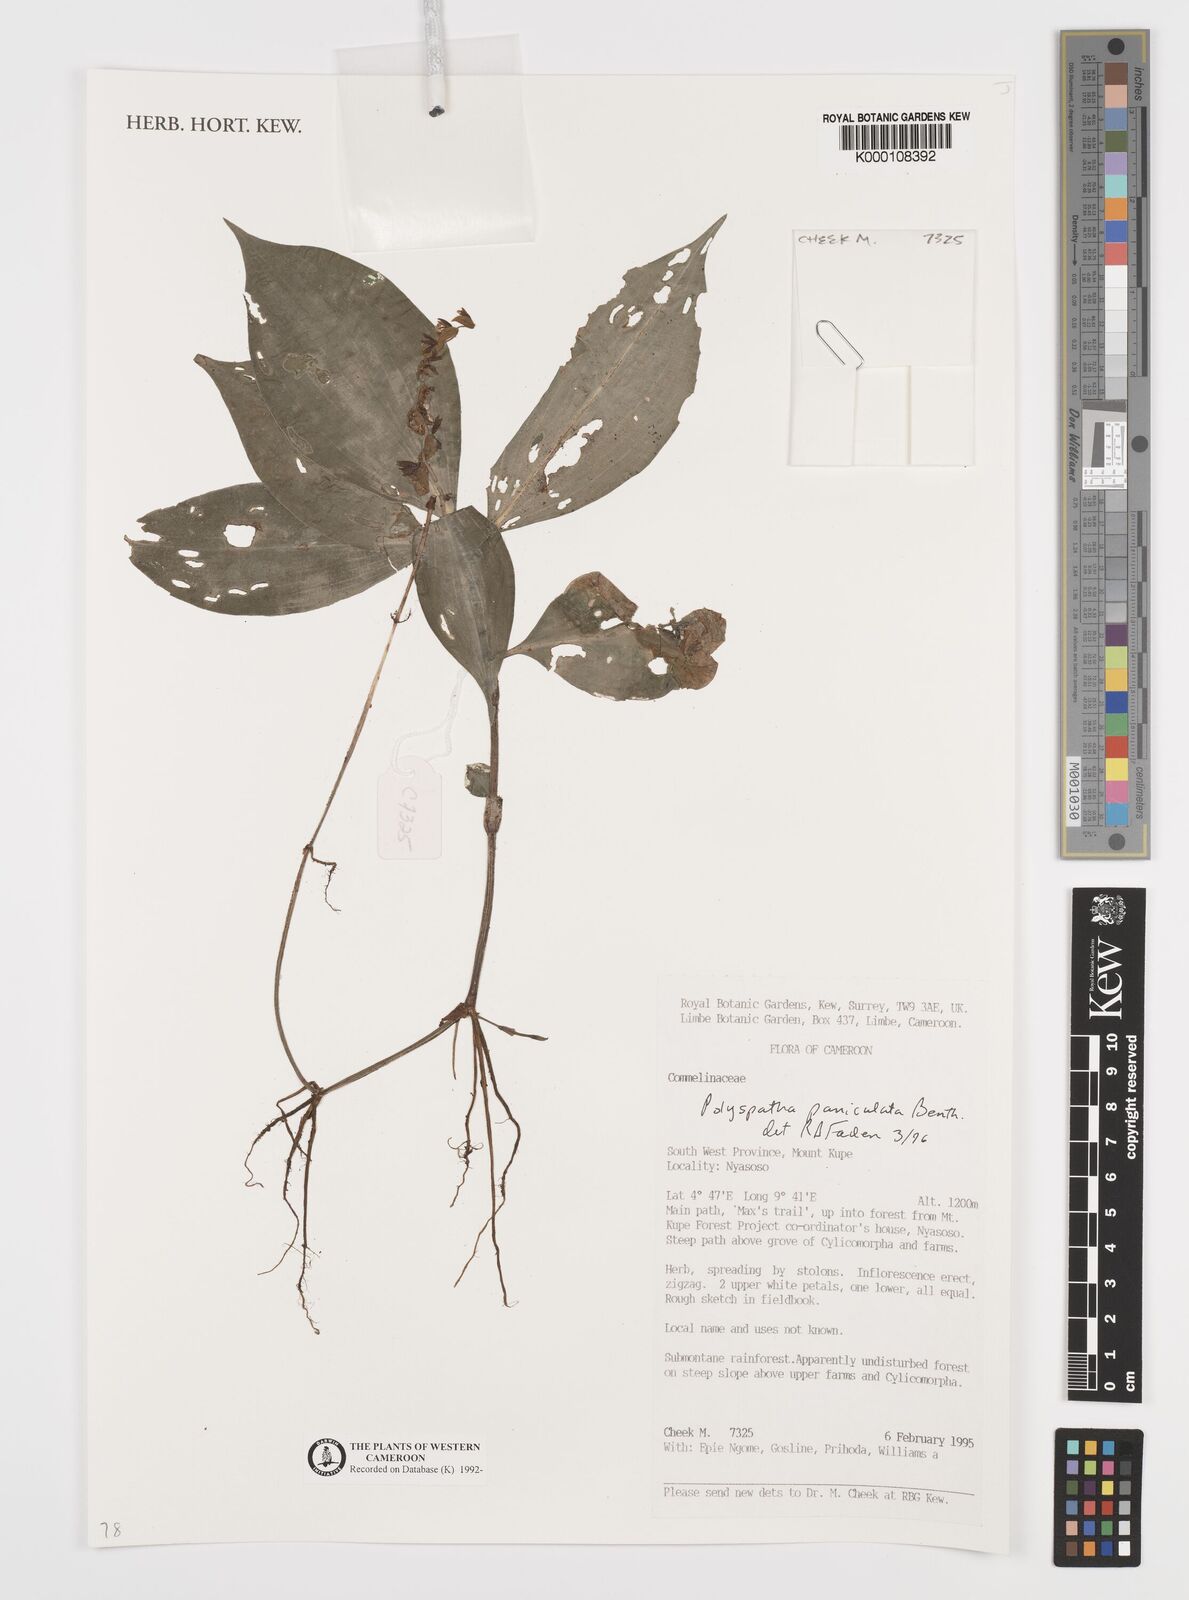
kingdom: Plantae
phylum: Tracheophyta
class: Liliopsida
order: Commelinales
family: Commelinaceae
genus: Polyspatha
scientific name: Polyspatha paniculata
